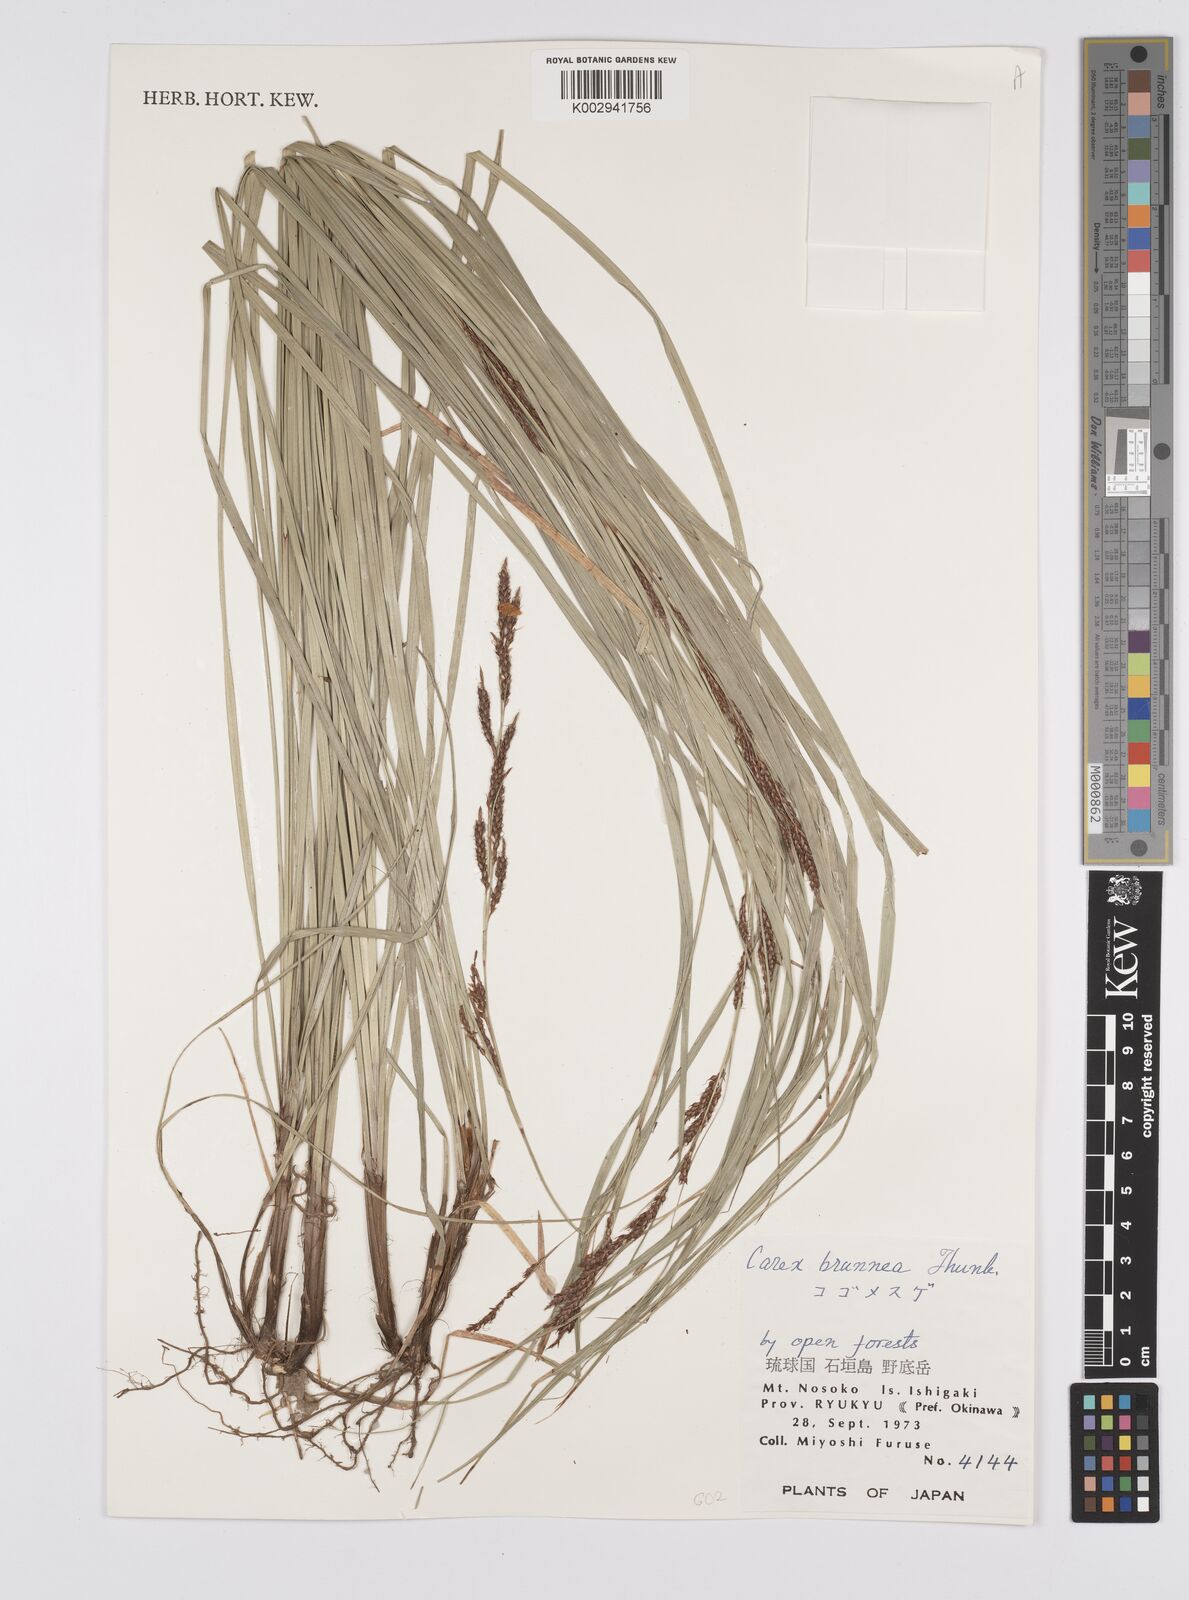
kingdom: Plantae
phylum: Tracheophyta
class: Liliopsida
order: Poales
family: Cyperaceae
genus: Carex
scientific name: Carex brunnea
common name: Greater brown sedge
